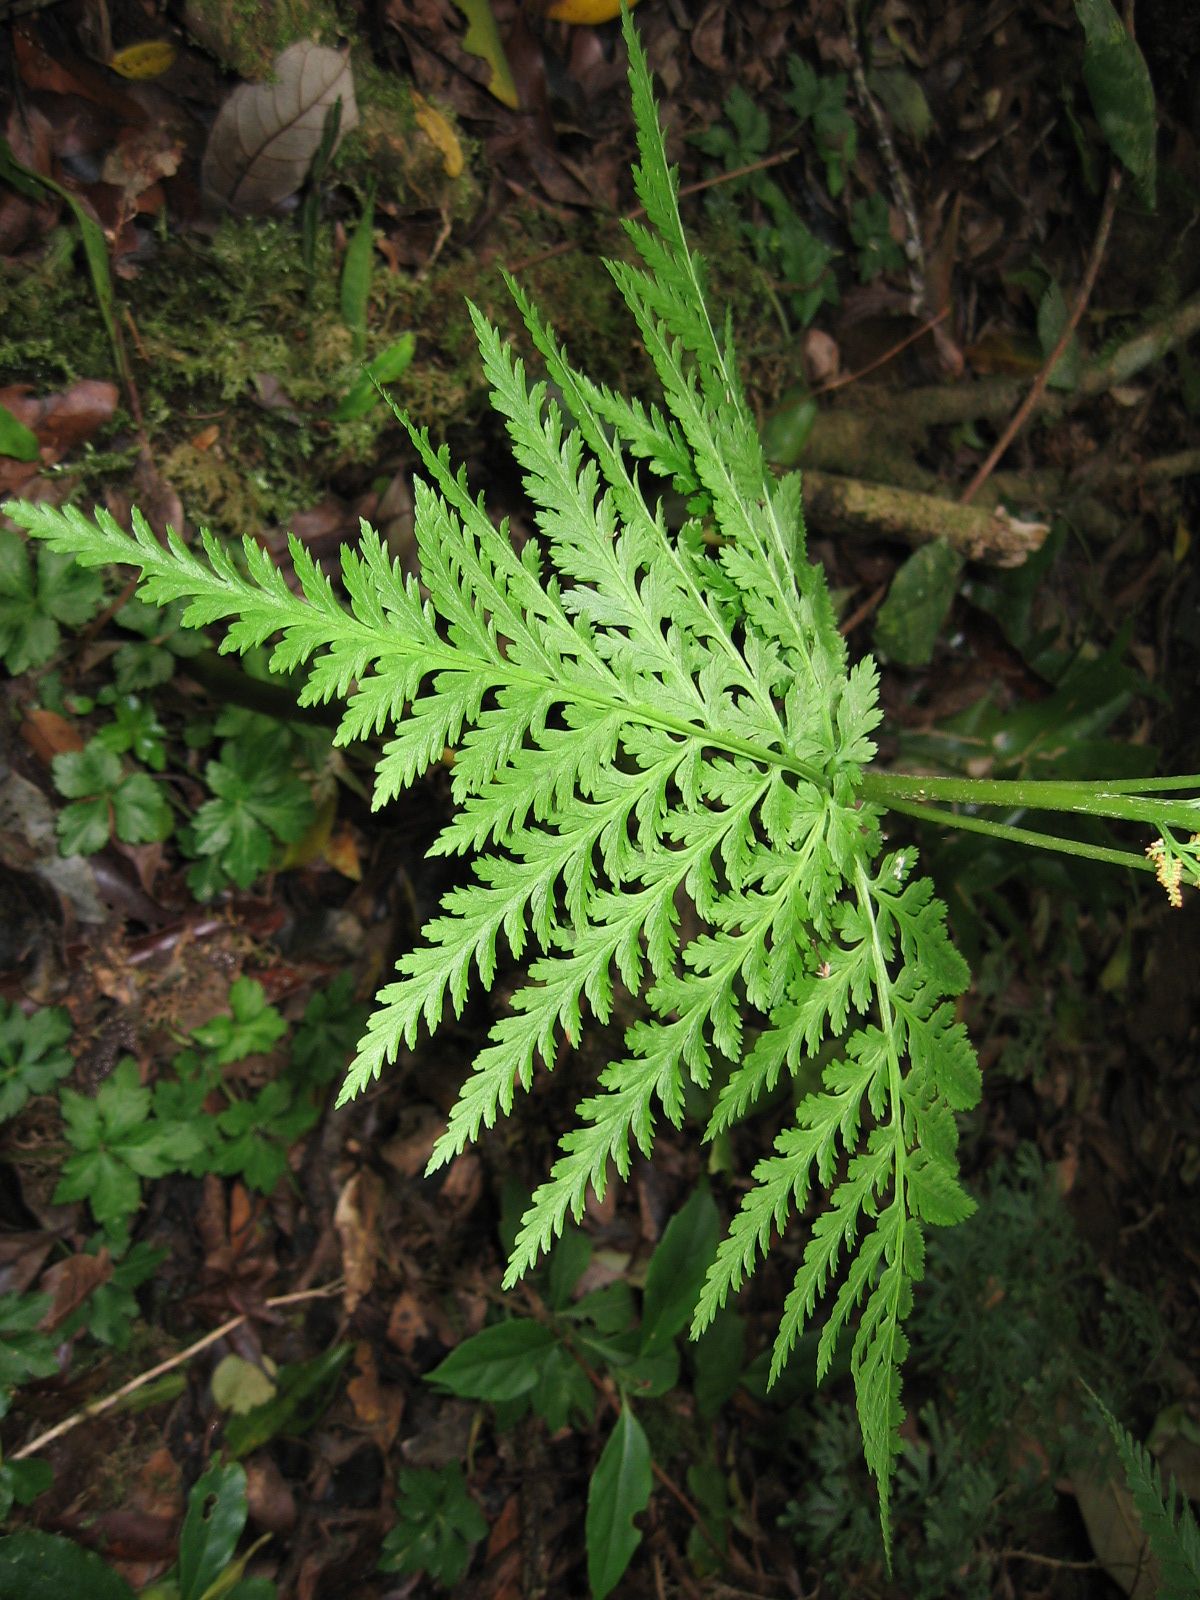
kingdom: Plantae
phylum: Tracheophyta
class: Polypodiopsida
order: Ophioglossales
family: Ophioglossaceae
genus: Botrypus
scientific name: Botrypus virginianus
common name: Common grapefern
